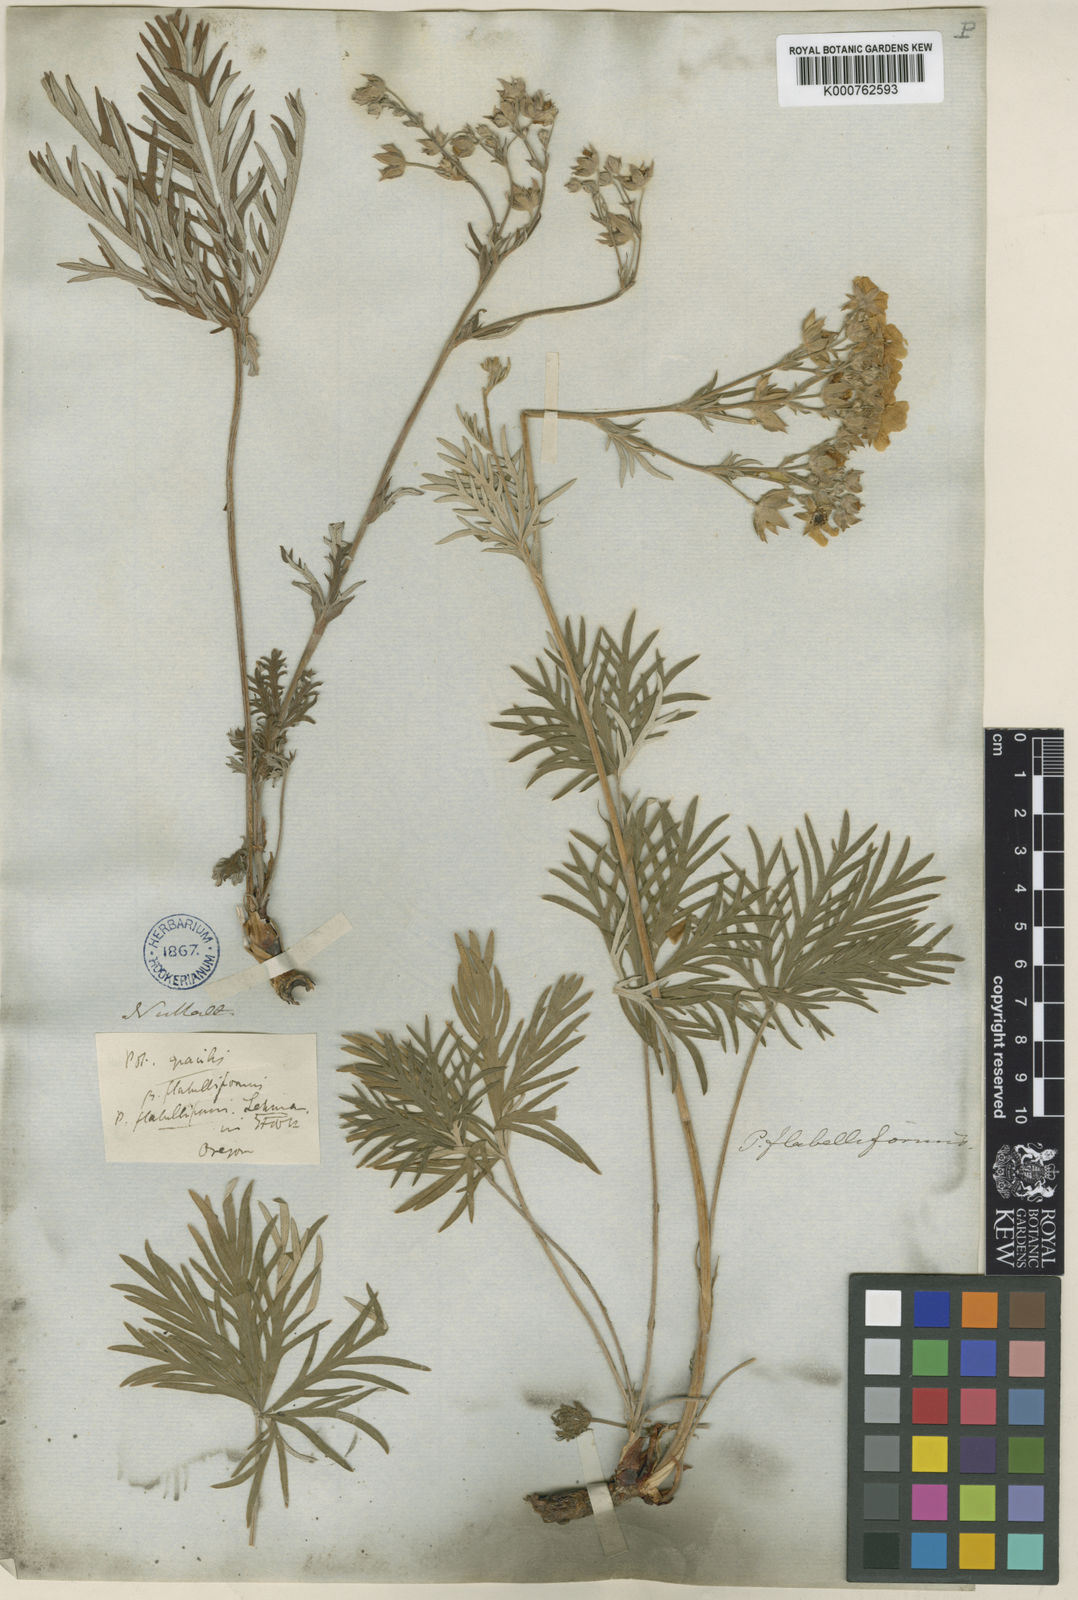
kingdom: Plantae
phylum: Tracheophyta
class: Magnoliopsida
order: Rosales
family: Rosaceae
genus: Potentilla
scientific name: Potentilla gracilis
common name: Graceful cinquefoil
